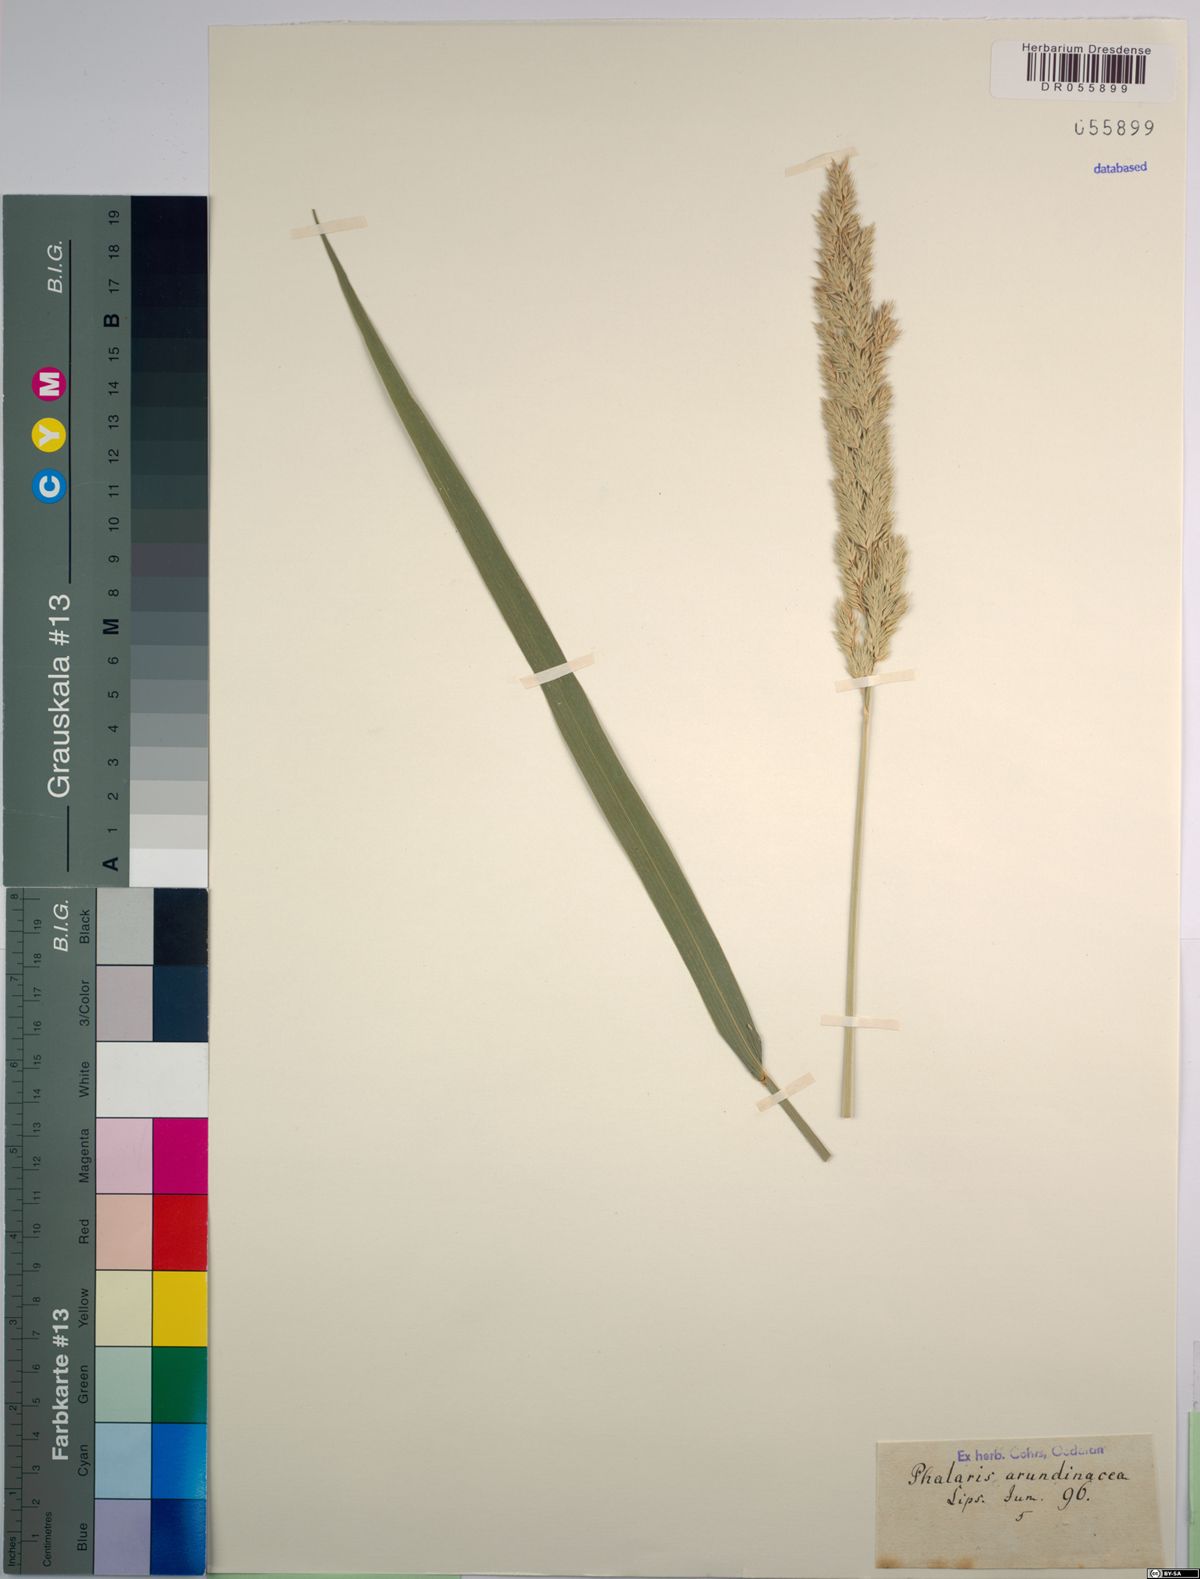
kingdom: Plantae
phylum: Tracheophyta
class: Liliopsida
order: Poales
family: Poaceae
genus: Phalaris
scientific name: Phalaris arundinacea
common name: Reed canary-grass
